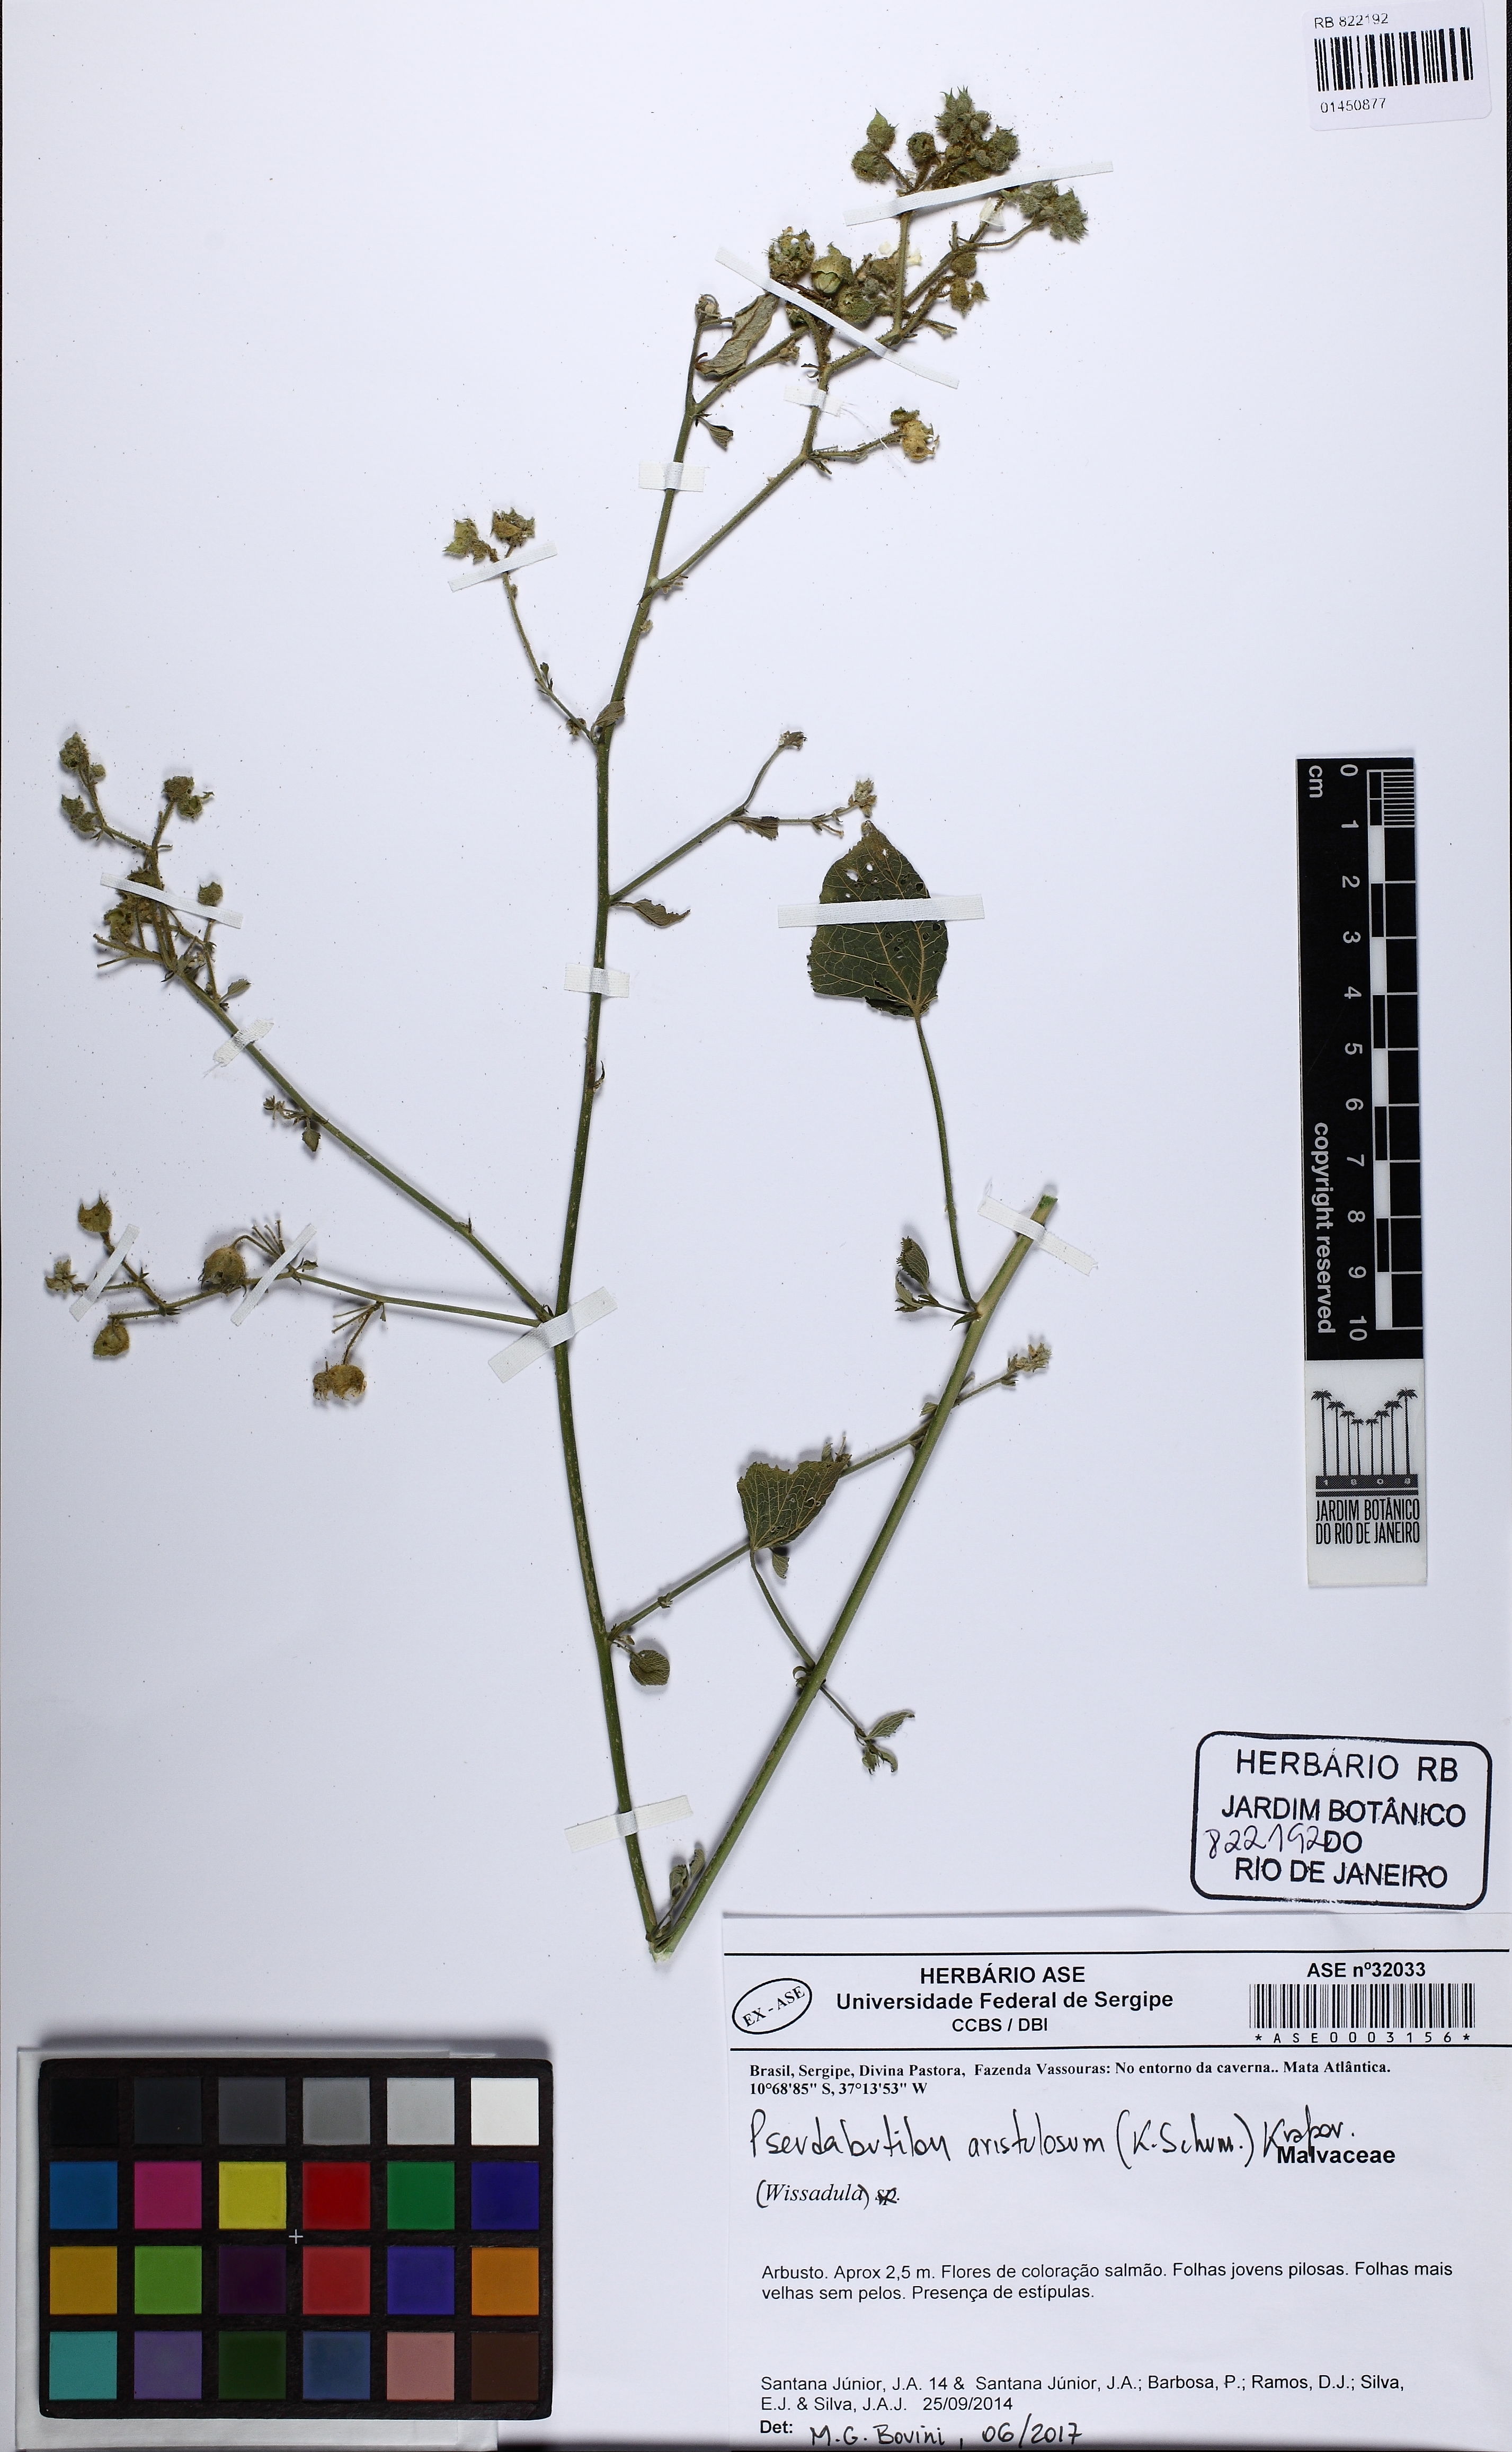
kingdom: Plantae
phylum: Tracheophyta
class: Magnoliopsida
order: Malvales
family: Malvaceae
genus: Pseudabutilon
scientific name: Pseudabutilon aristulosum
